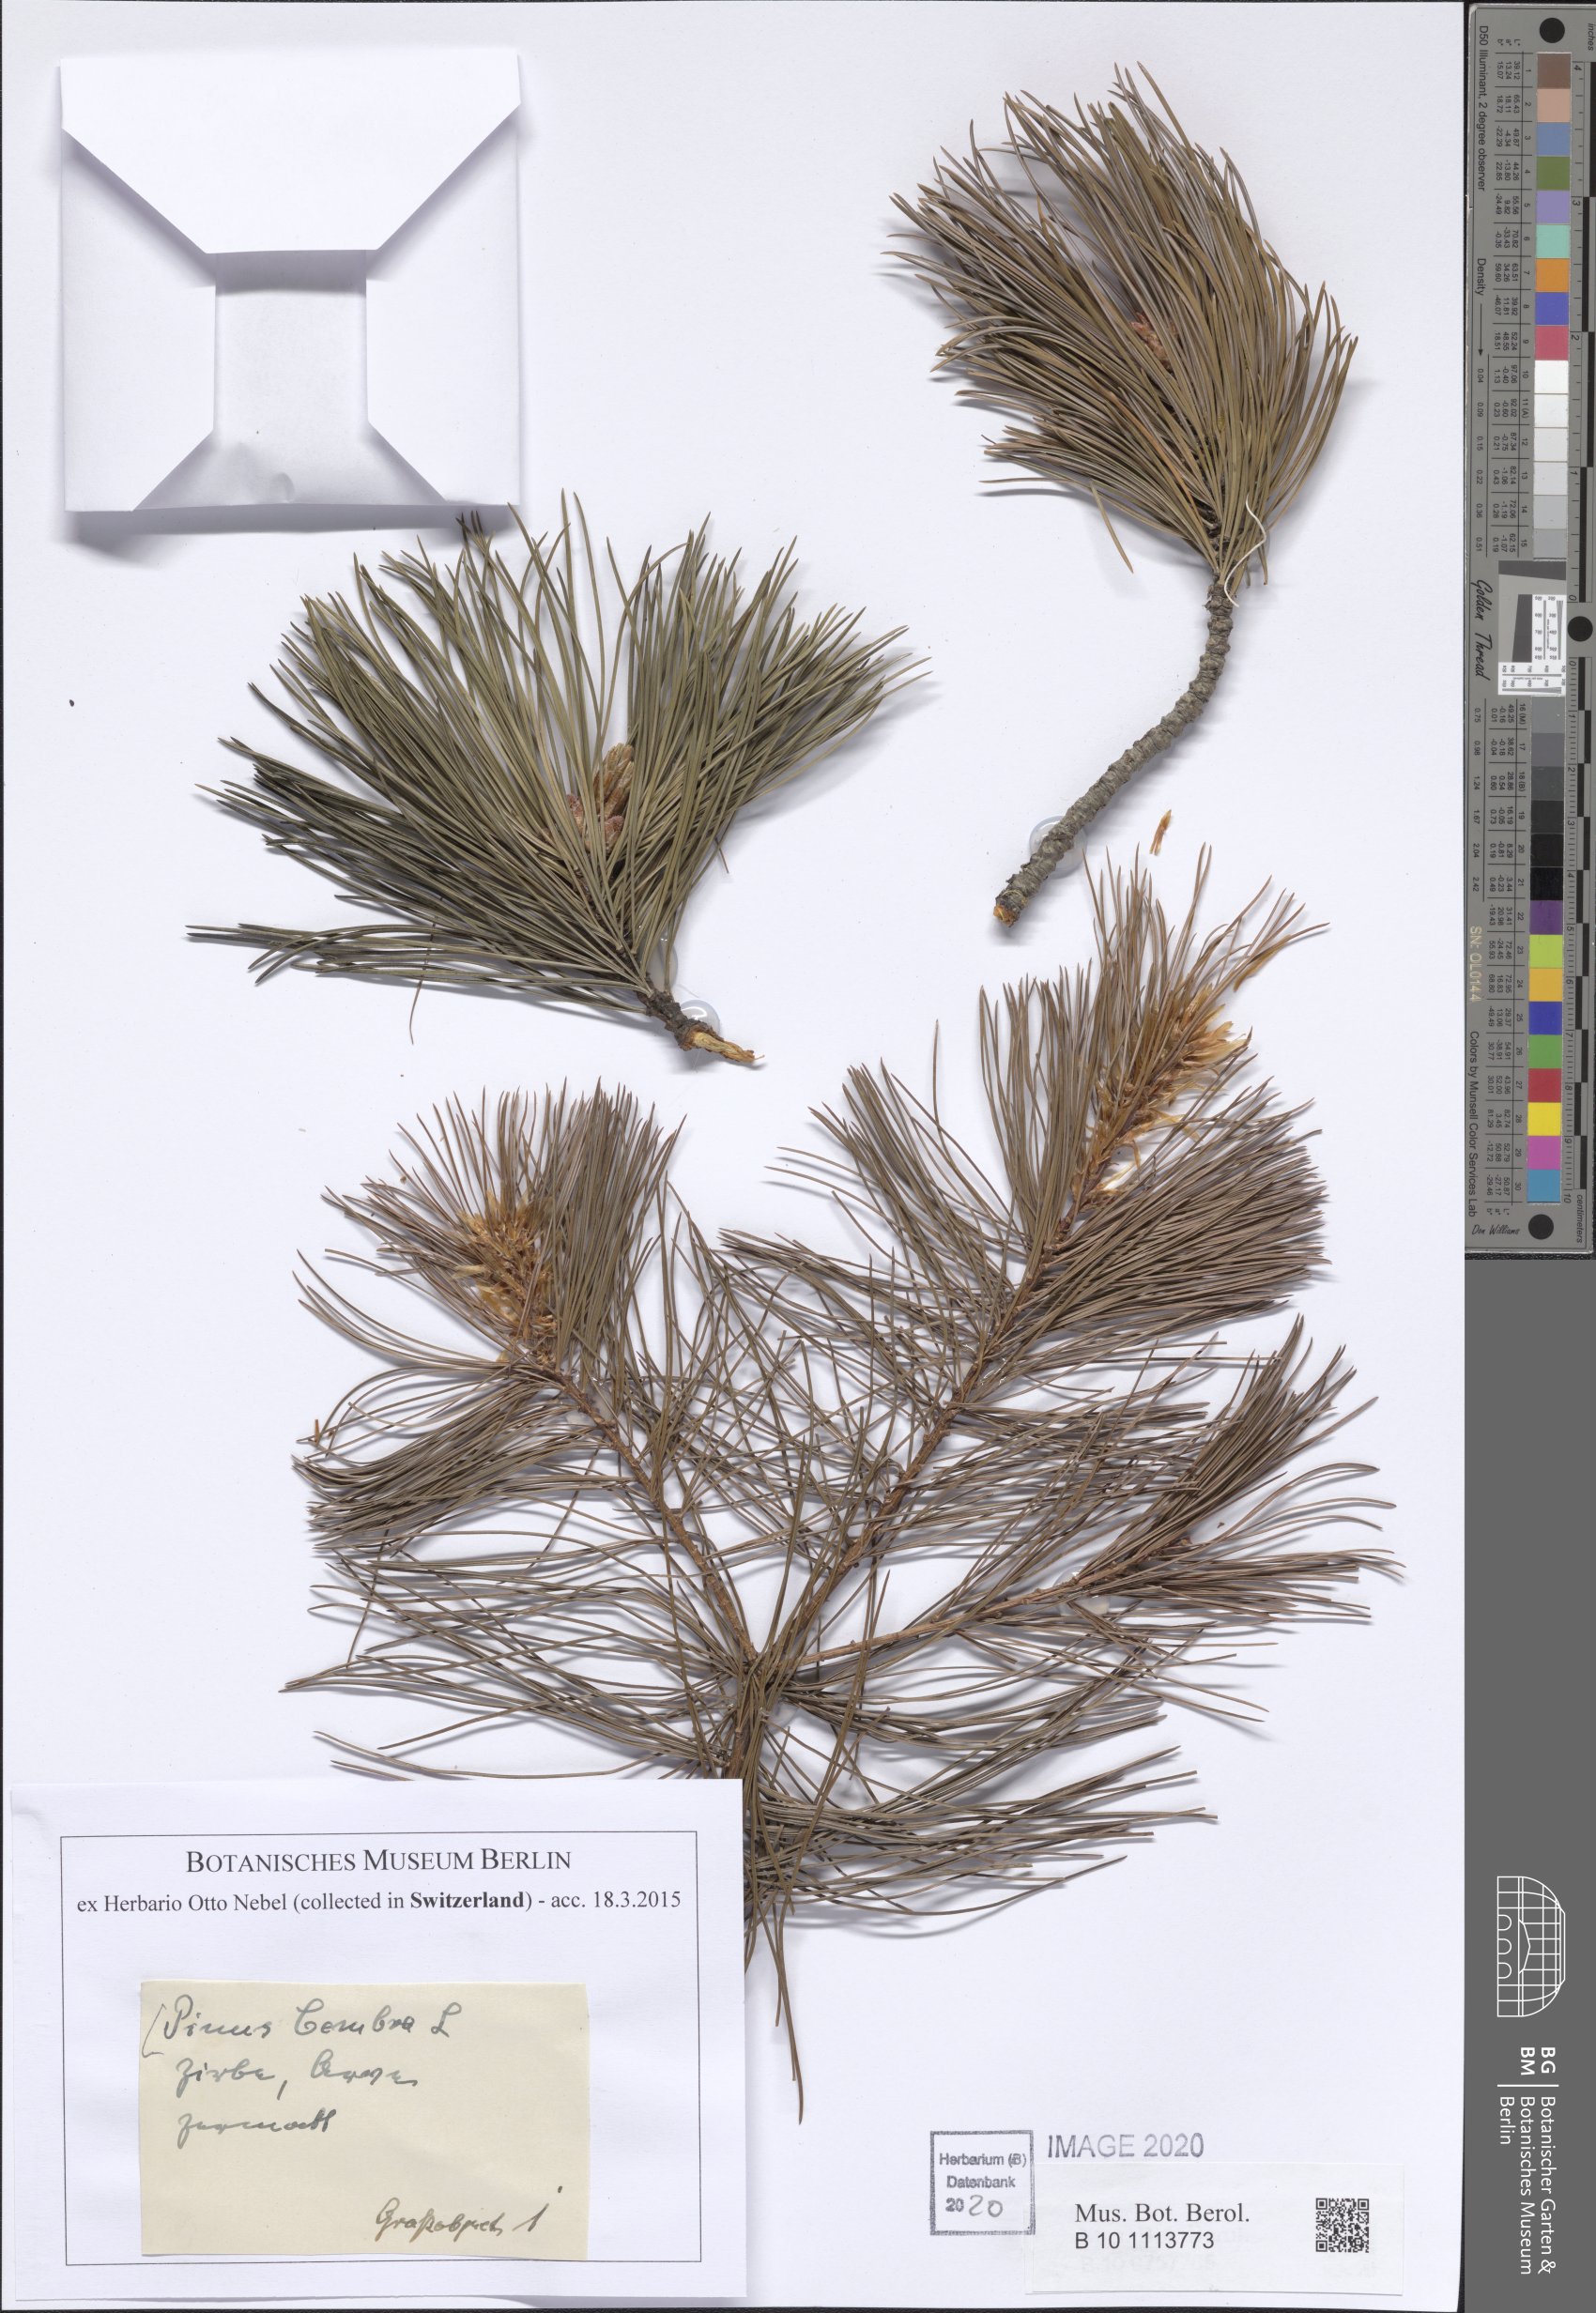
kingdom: Plantae
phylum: Tracheophyta
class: Pinopsida
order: Pinales
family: Pinaceae
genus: Pinus
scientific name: Pinus cembra
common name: Arolla pine
